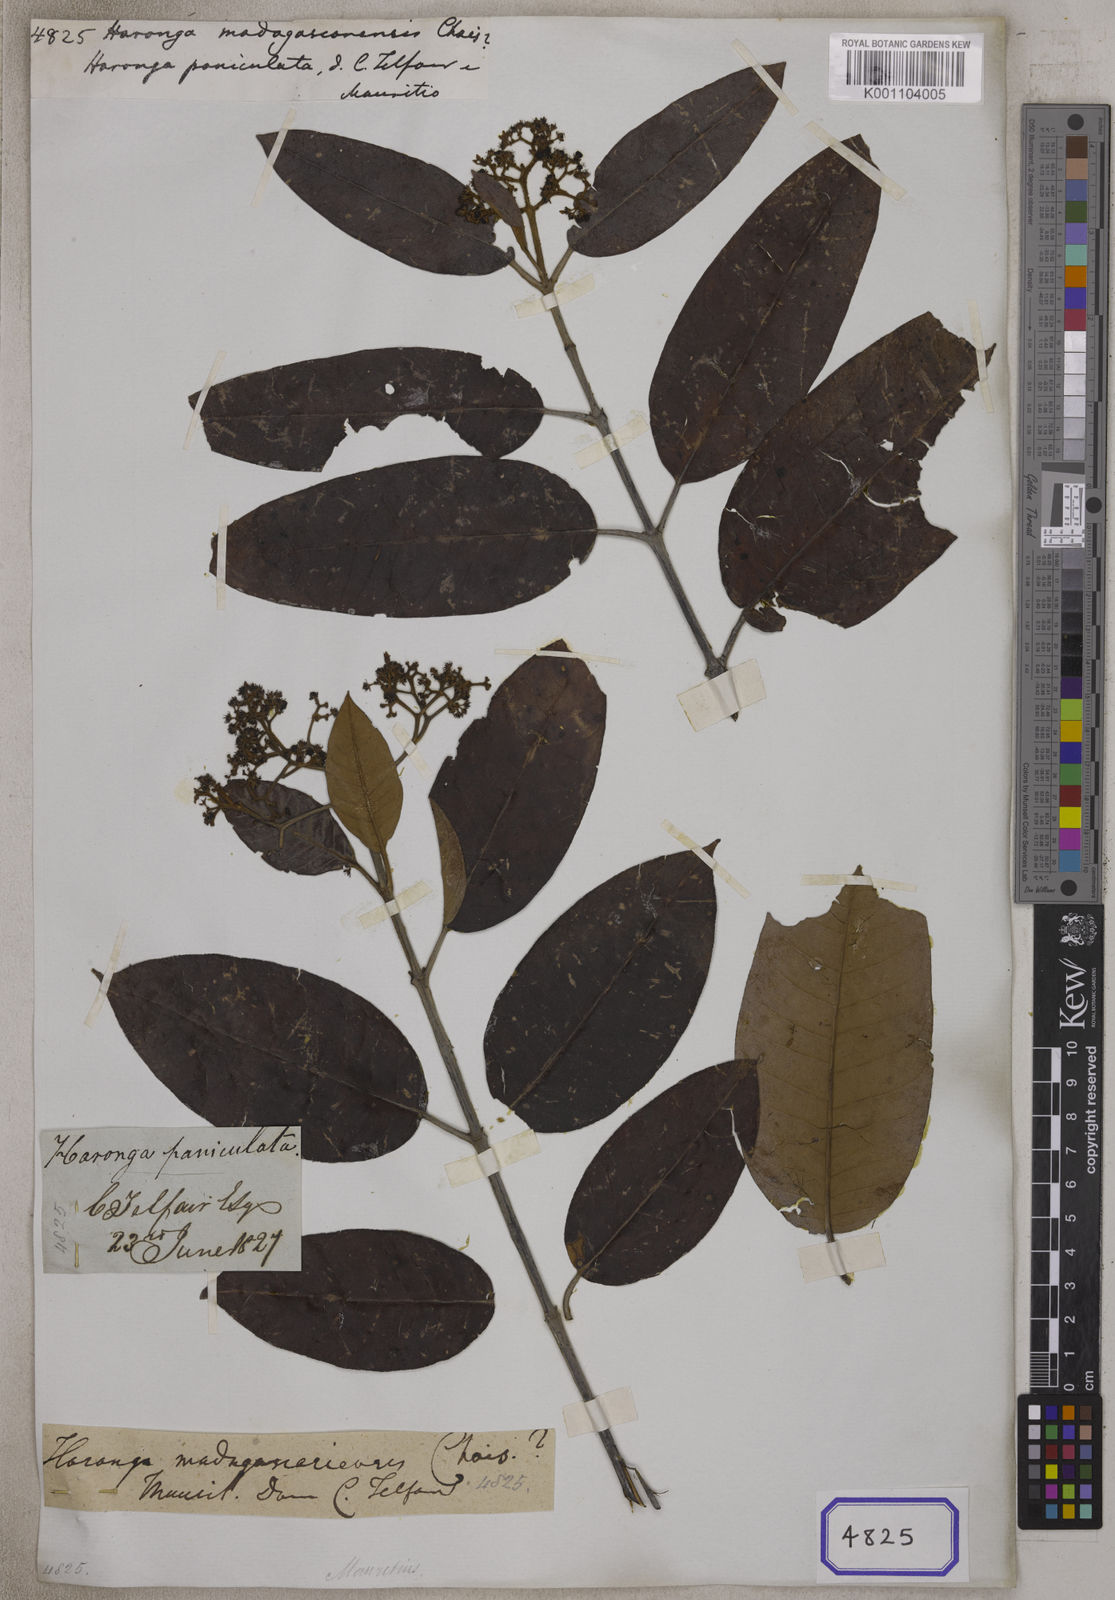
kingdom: Plantae
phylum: Tracheophyta
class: Magnoliopsida
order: Malpighiales
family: Hypericaceae
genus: Harungana
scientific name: Harungana madagascariensis
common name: Orange milktree
